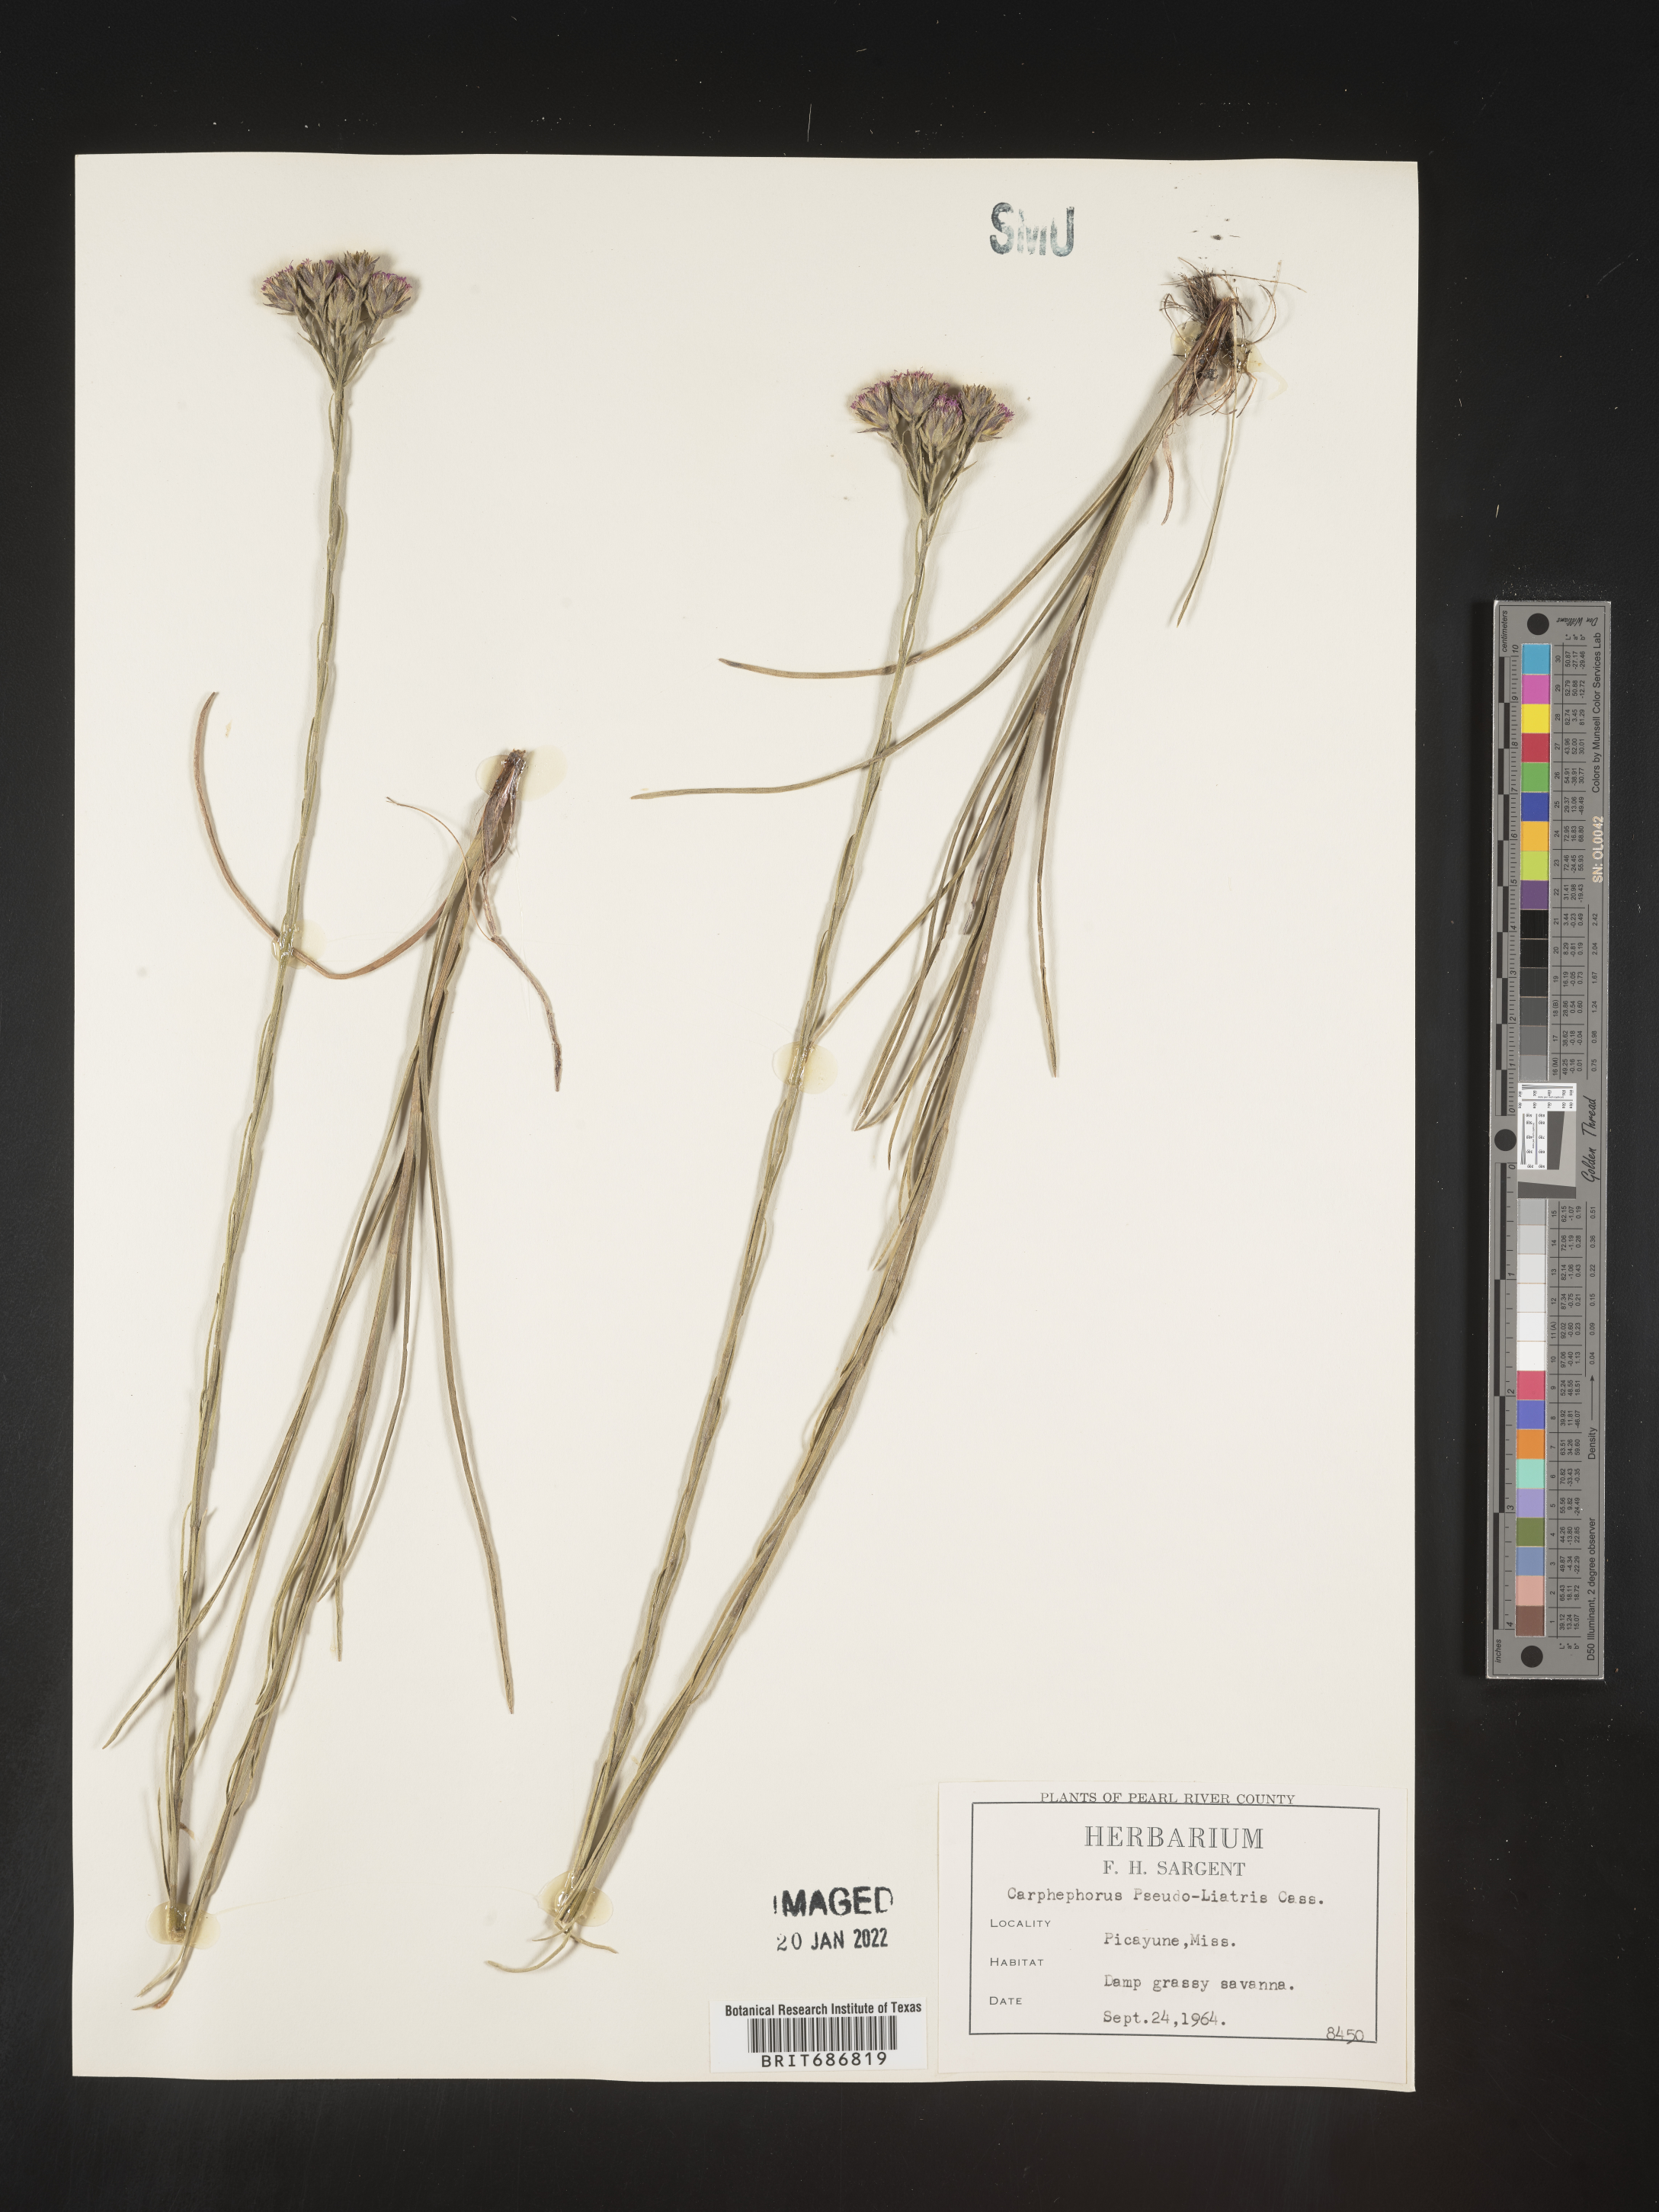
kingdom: Plantae
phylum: Tracheophyta
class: Magnoliopsida
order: Asterales
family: Asteraceae
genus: Carphephorus
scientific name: Carphephorus pseudoliatris
